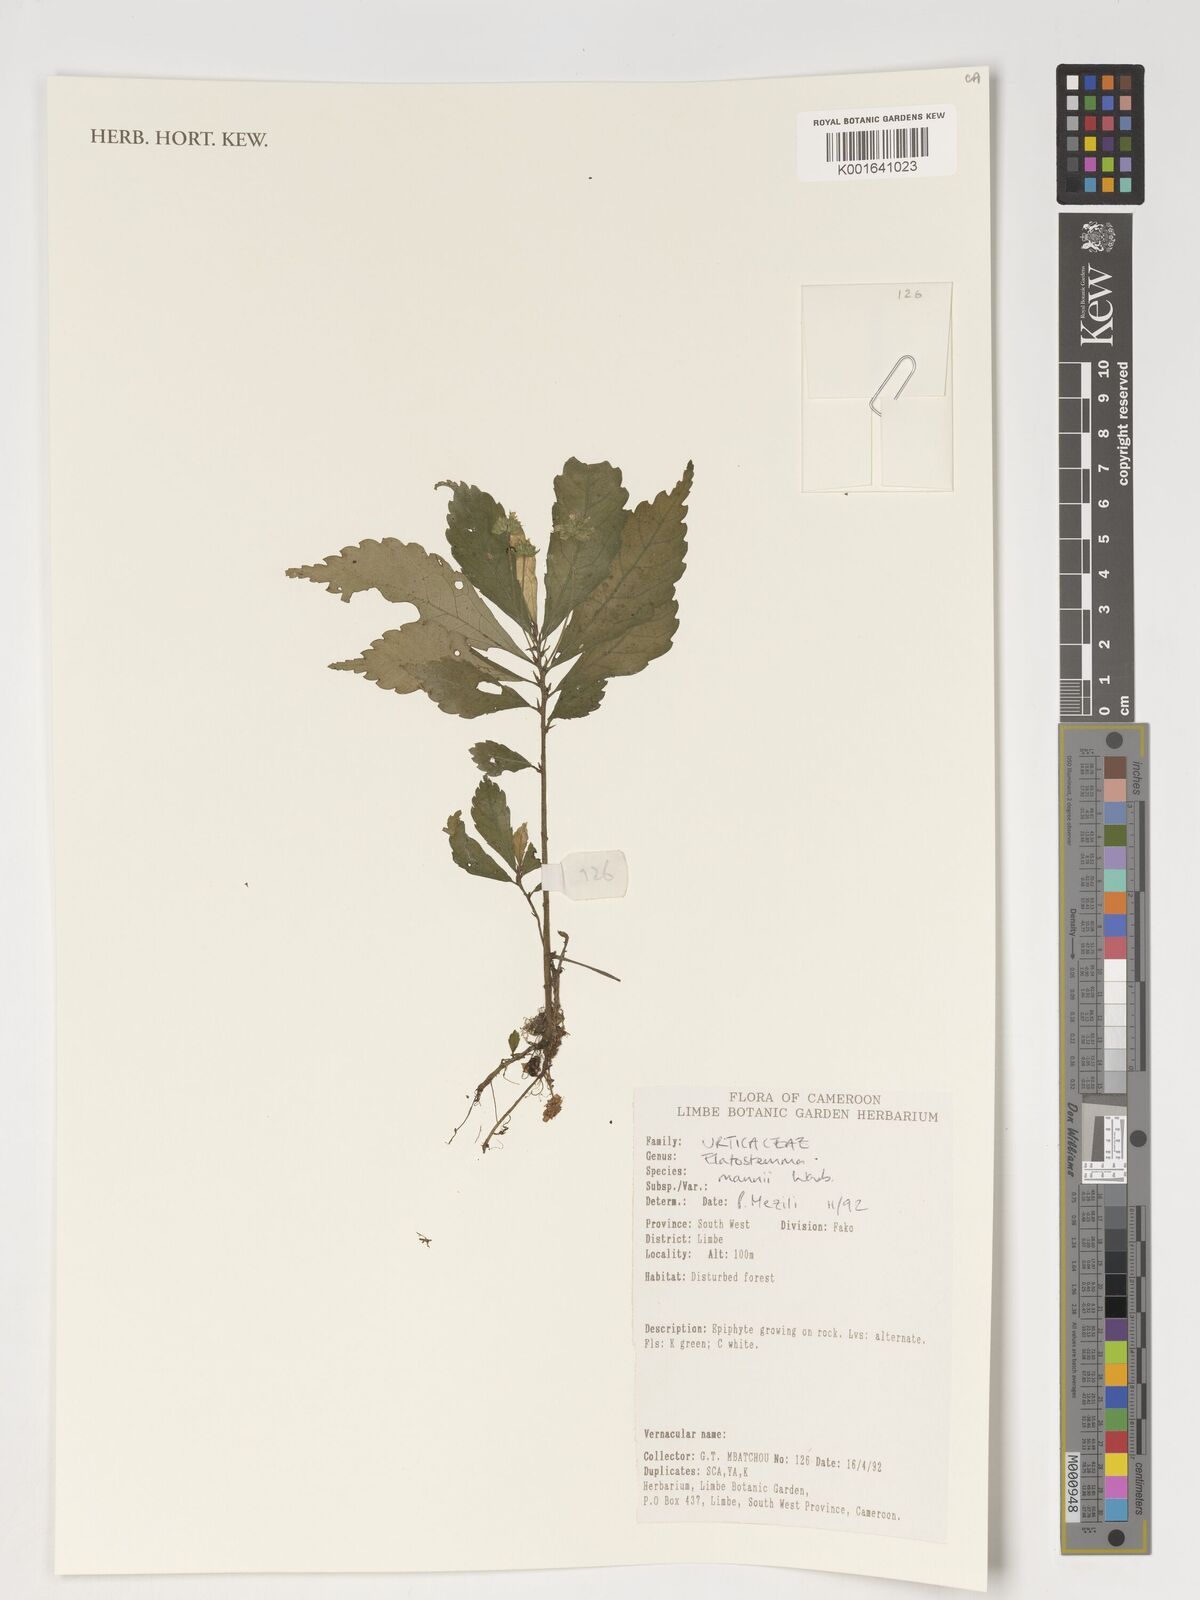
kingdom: Plantae
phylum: Tracheophyta
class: Magnoliopsida
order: Rosales
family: Urticaceae
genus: Elatostema
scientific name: Elatostema mannii
